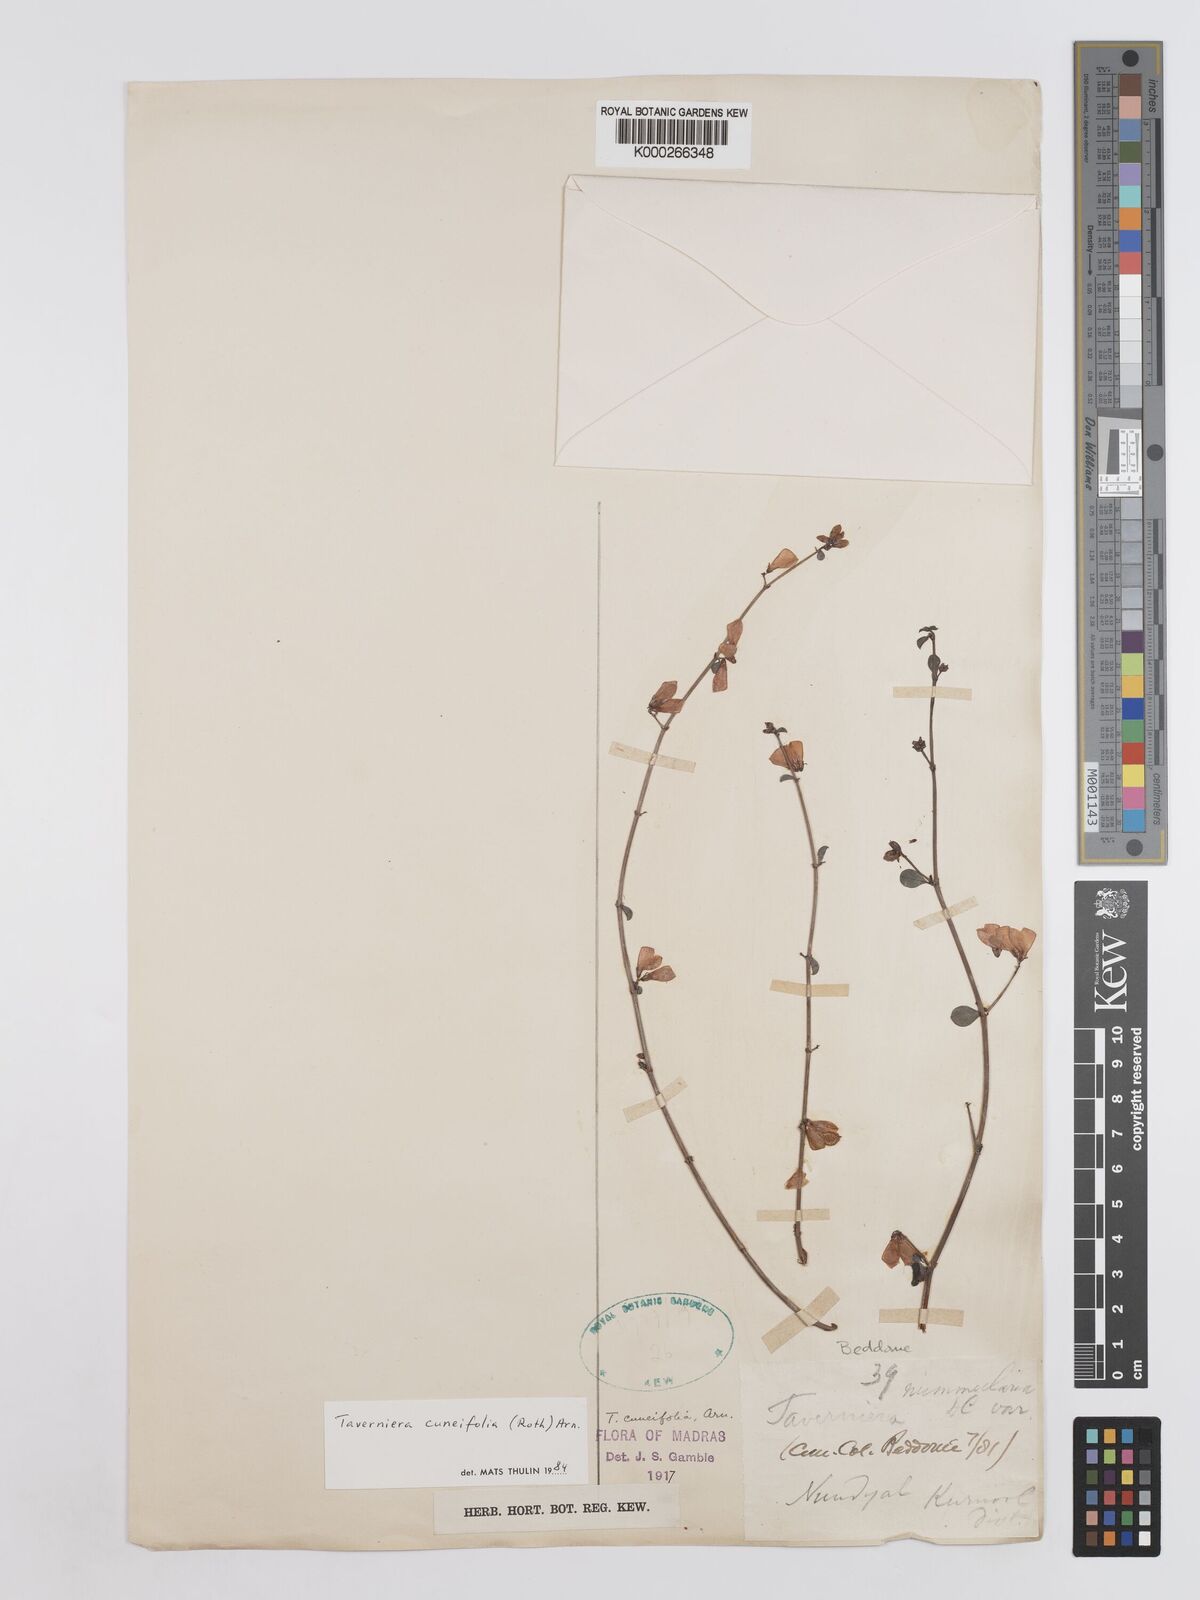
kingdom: Plantae
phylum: Tracheophyta
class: Magnoliopsida
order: Fabales
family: Fabaceae
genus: Taverniera
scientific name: Taverniera cuneifolia
